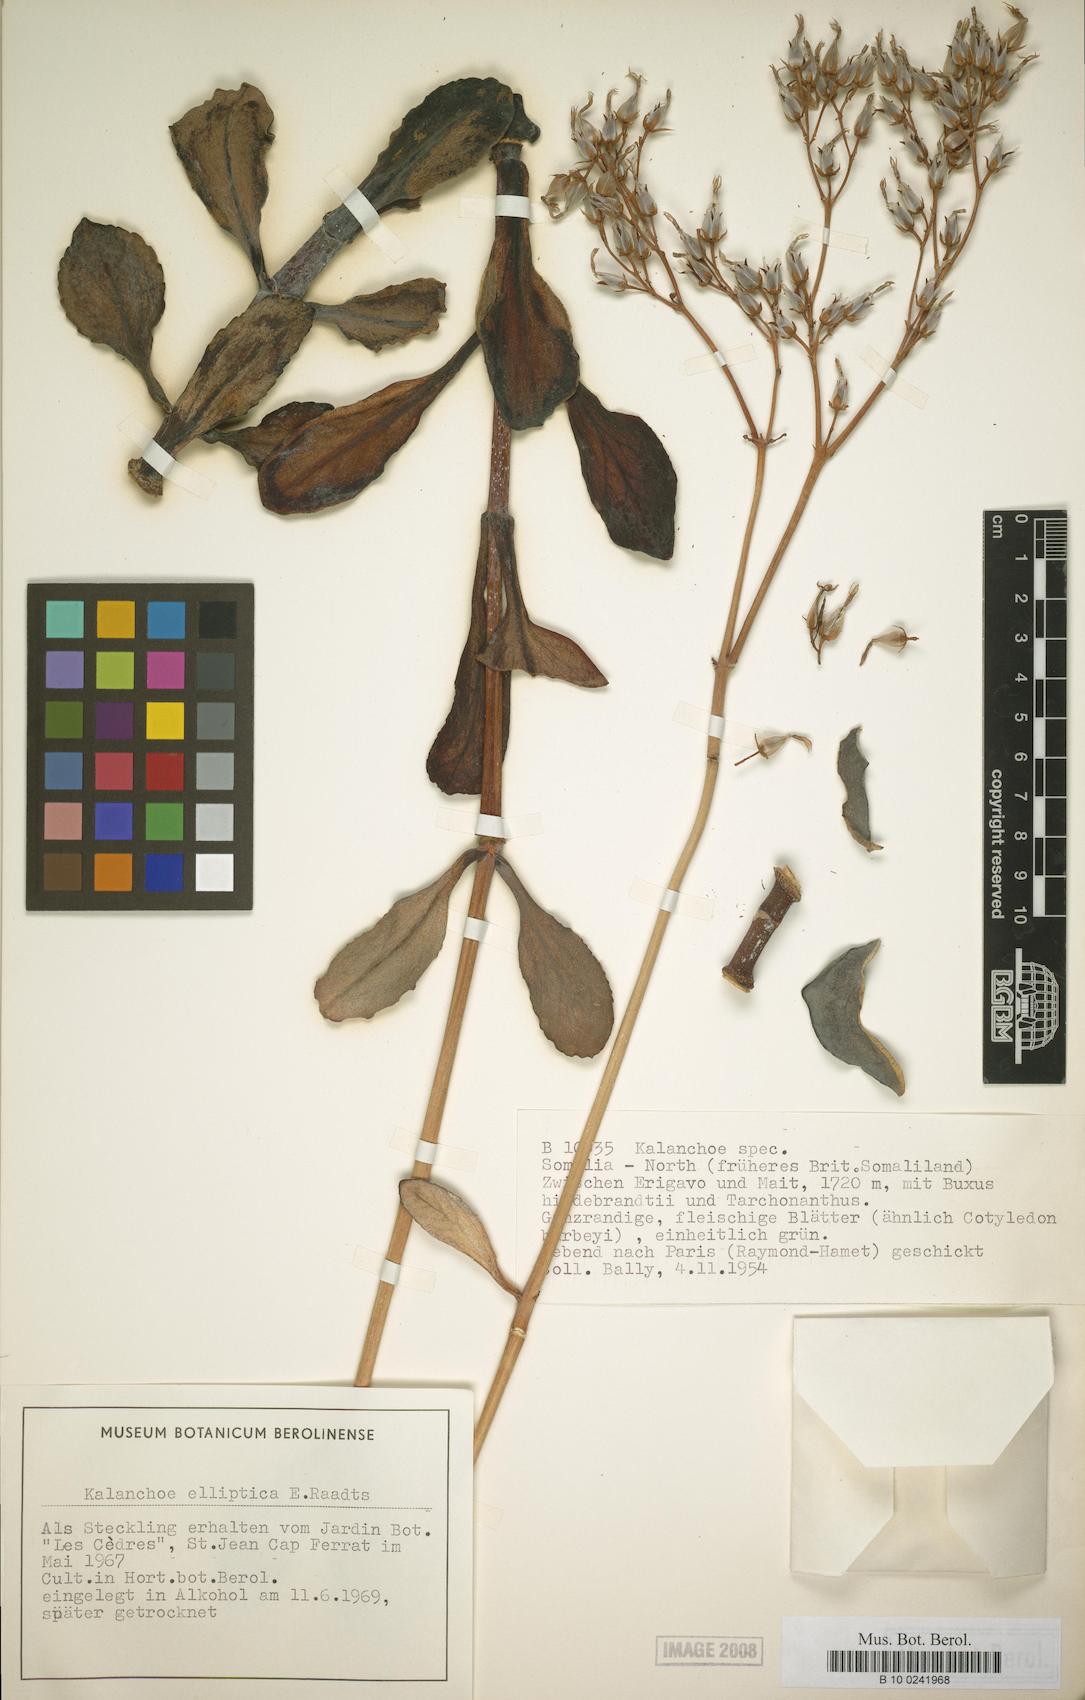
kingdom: Plantae
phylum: Tracheophyta
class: Magnoliopsida
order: Saxifragales
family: Crassulaceae
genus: Kalanchoe
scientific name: Kalanchoe glaucescens
